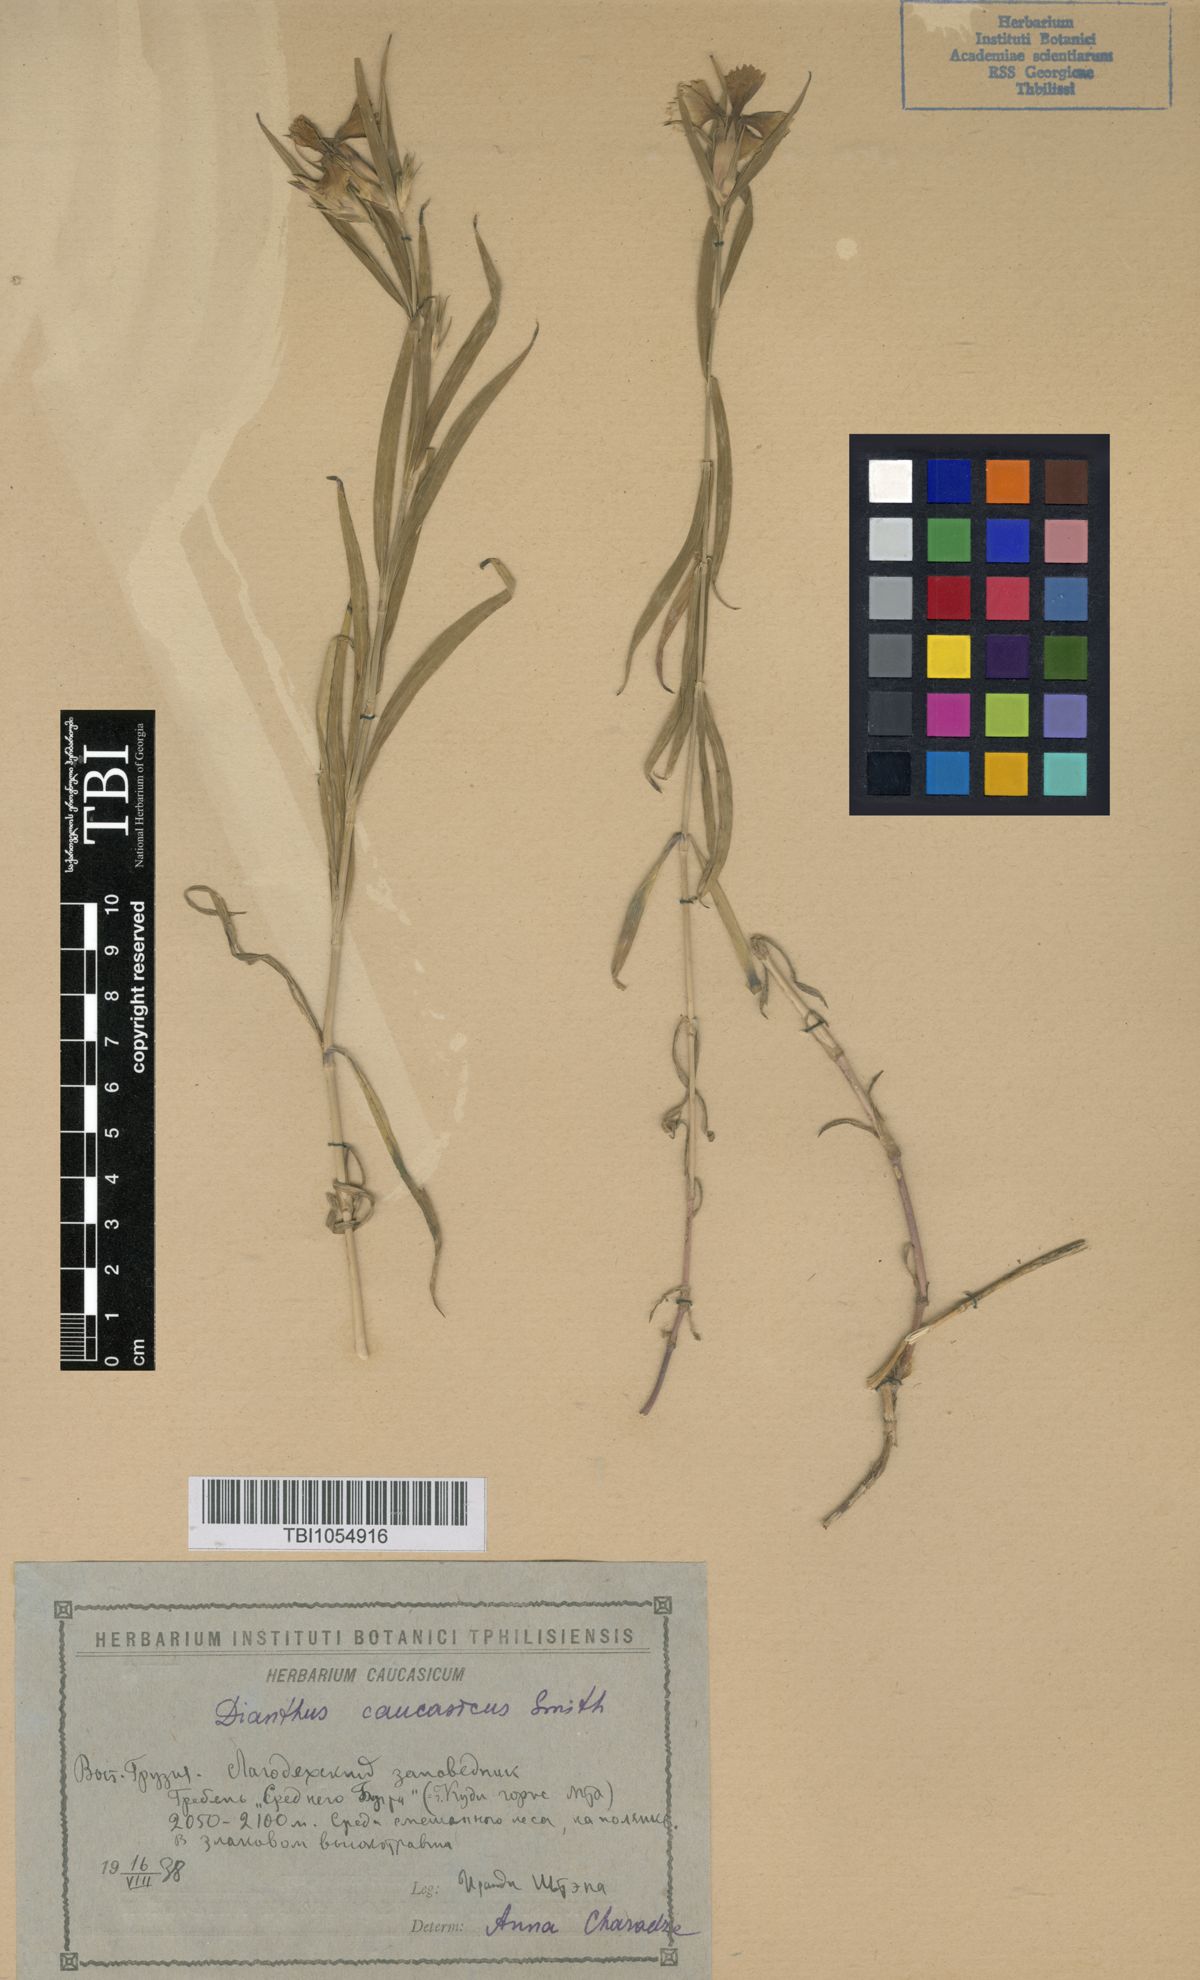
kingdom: Plantae
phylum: Tracheophyta
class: Magnoliopsida
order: Caryophyllales
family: Caryophyllaceae
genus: Dianthus
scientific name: Dianthus caucaseus
